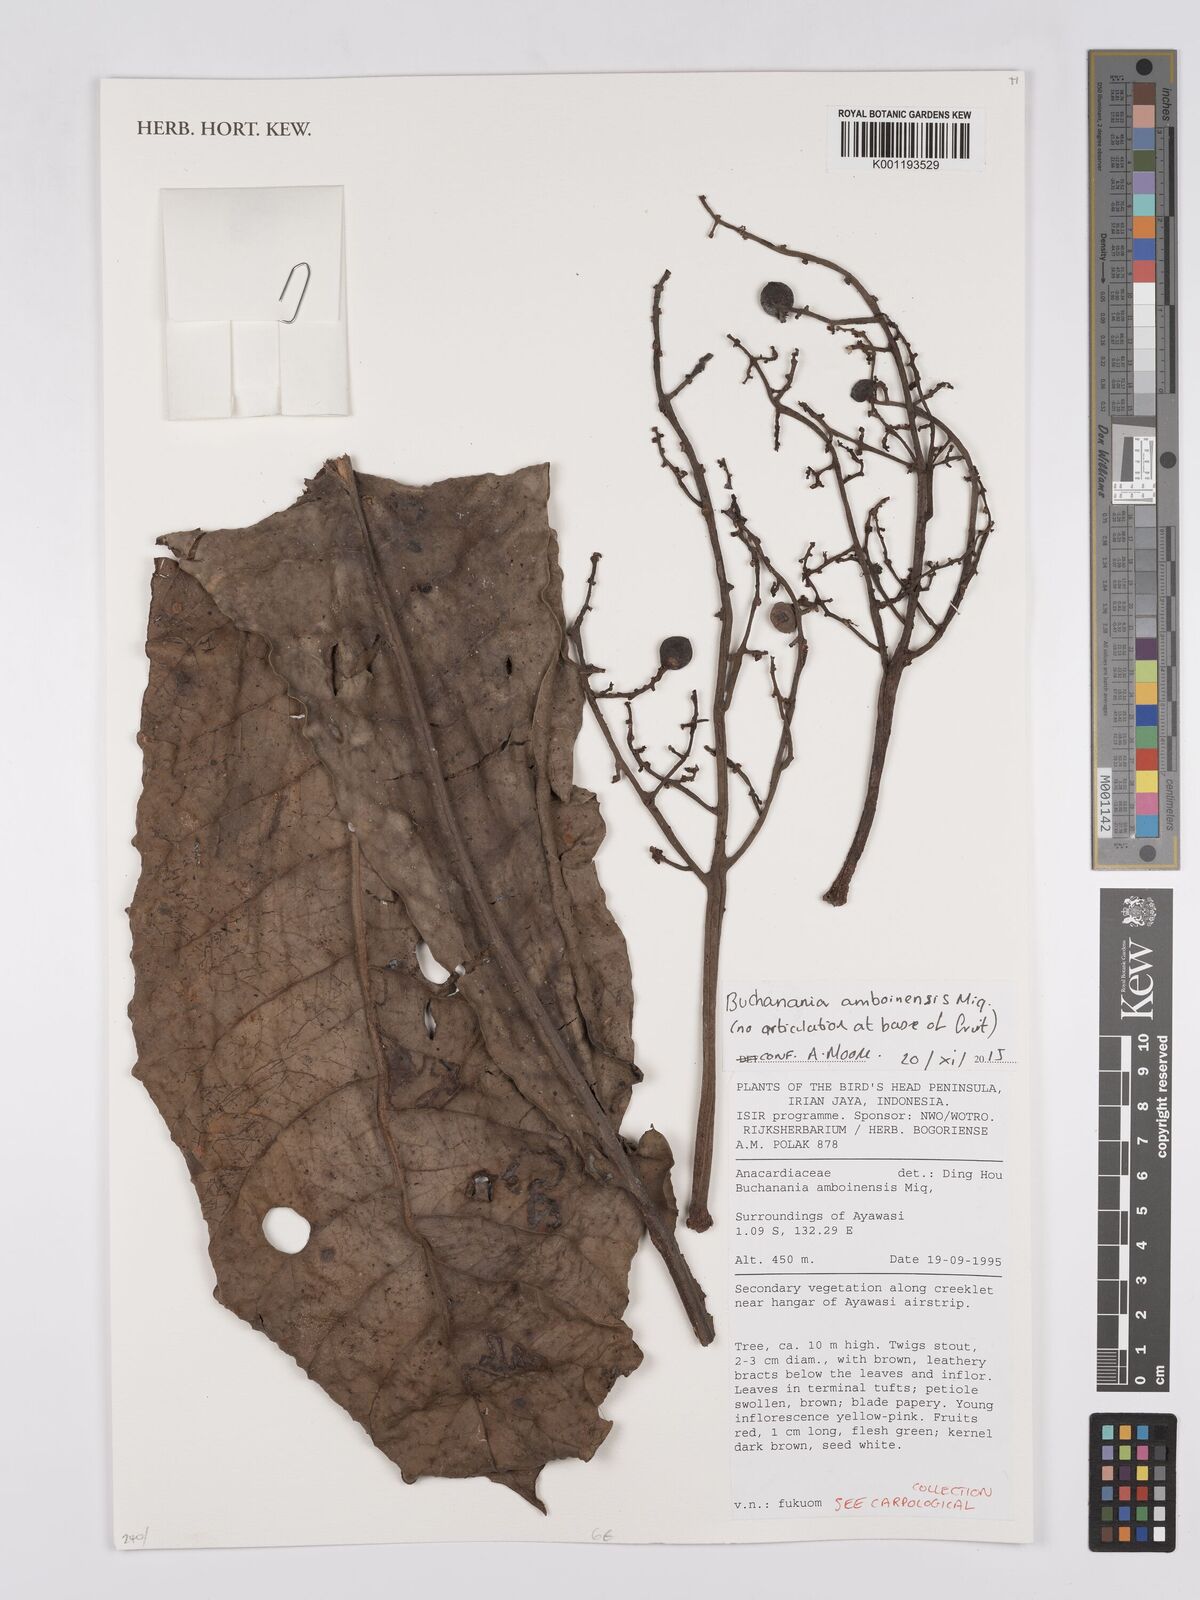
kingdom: Plantae
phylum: Tracheophyta
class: Magnoliopsida
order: Sapindales
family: Anacardiaceae
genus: Buchanania
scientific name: Buchanania arborescens
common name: Sparrow’s mango
